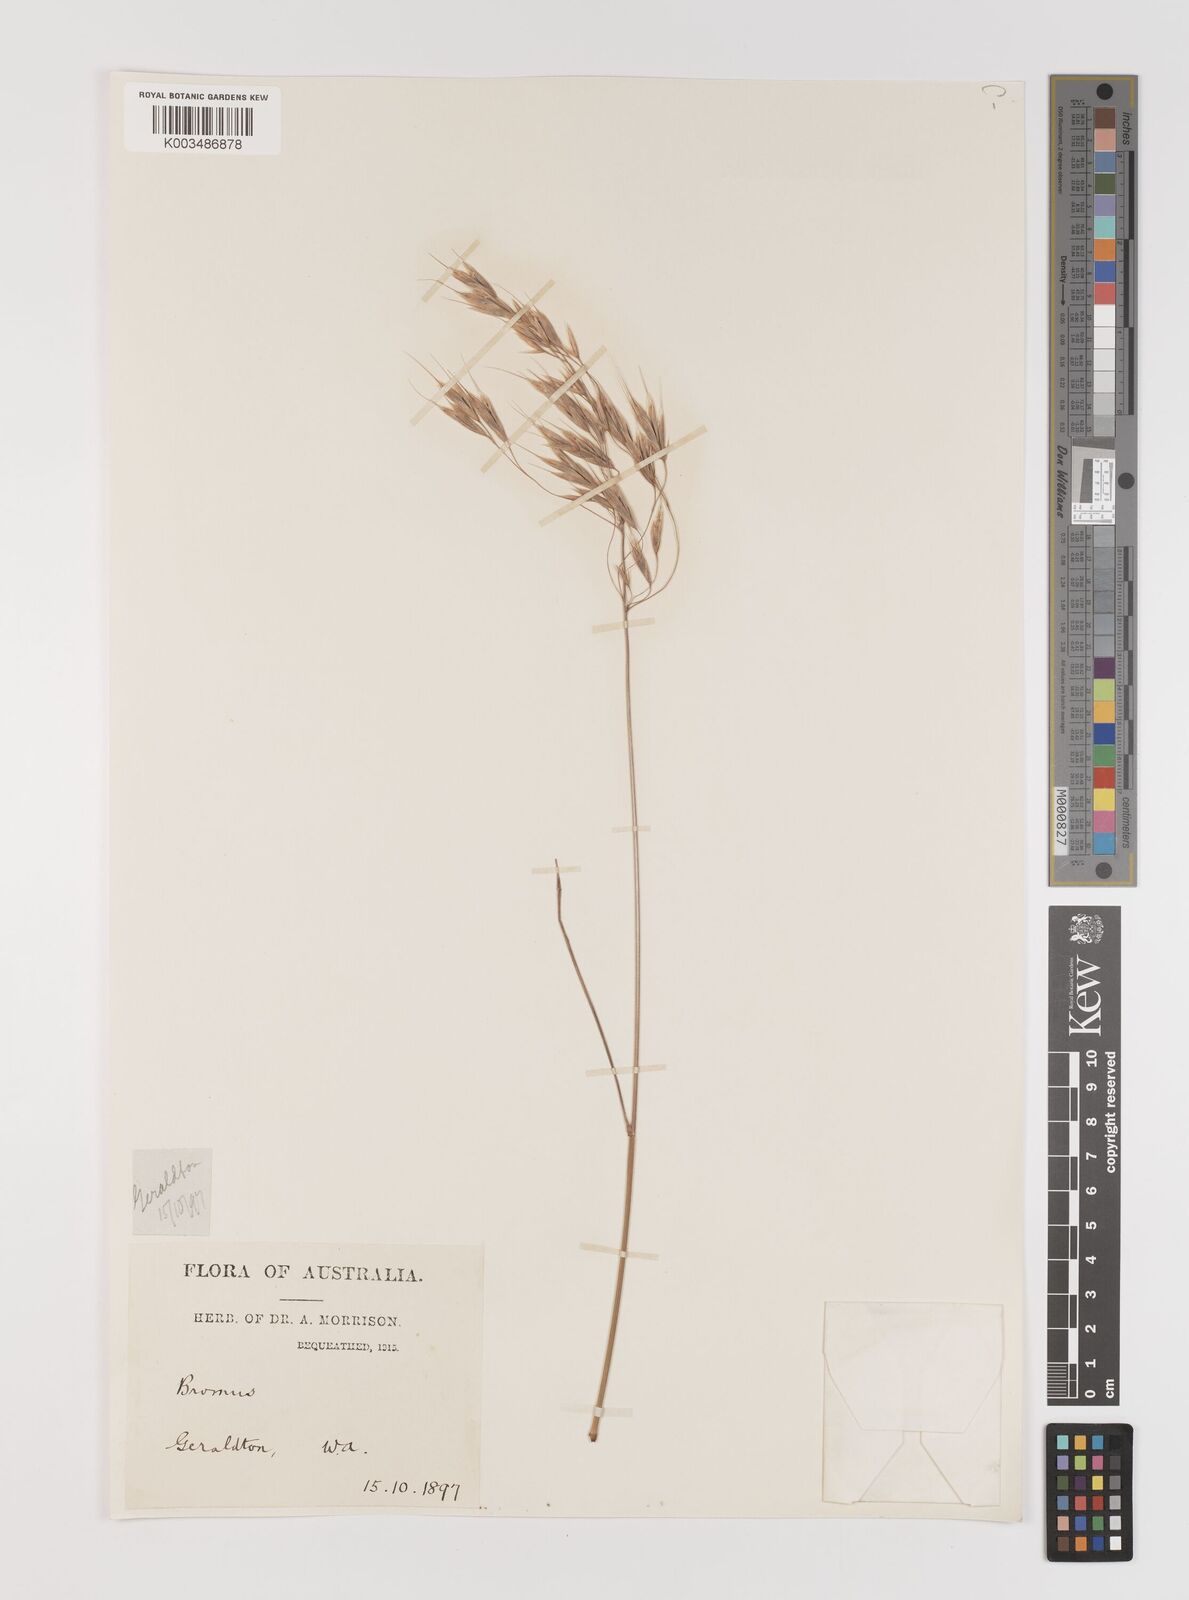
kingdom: Plantae
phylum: Tracheophyta
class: Liliopsida
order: Poales
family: Poaceae
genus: Bromus
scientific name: Bromus arenarius
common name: Australian brome
